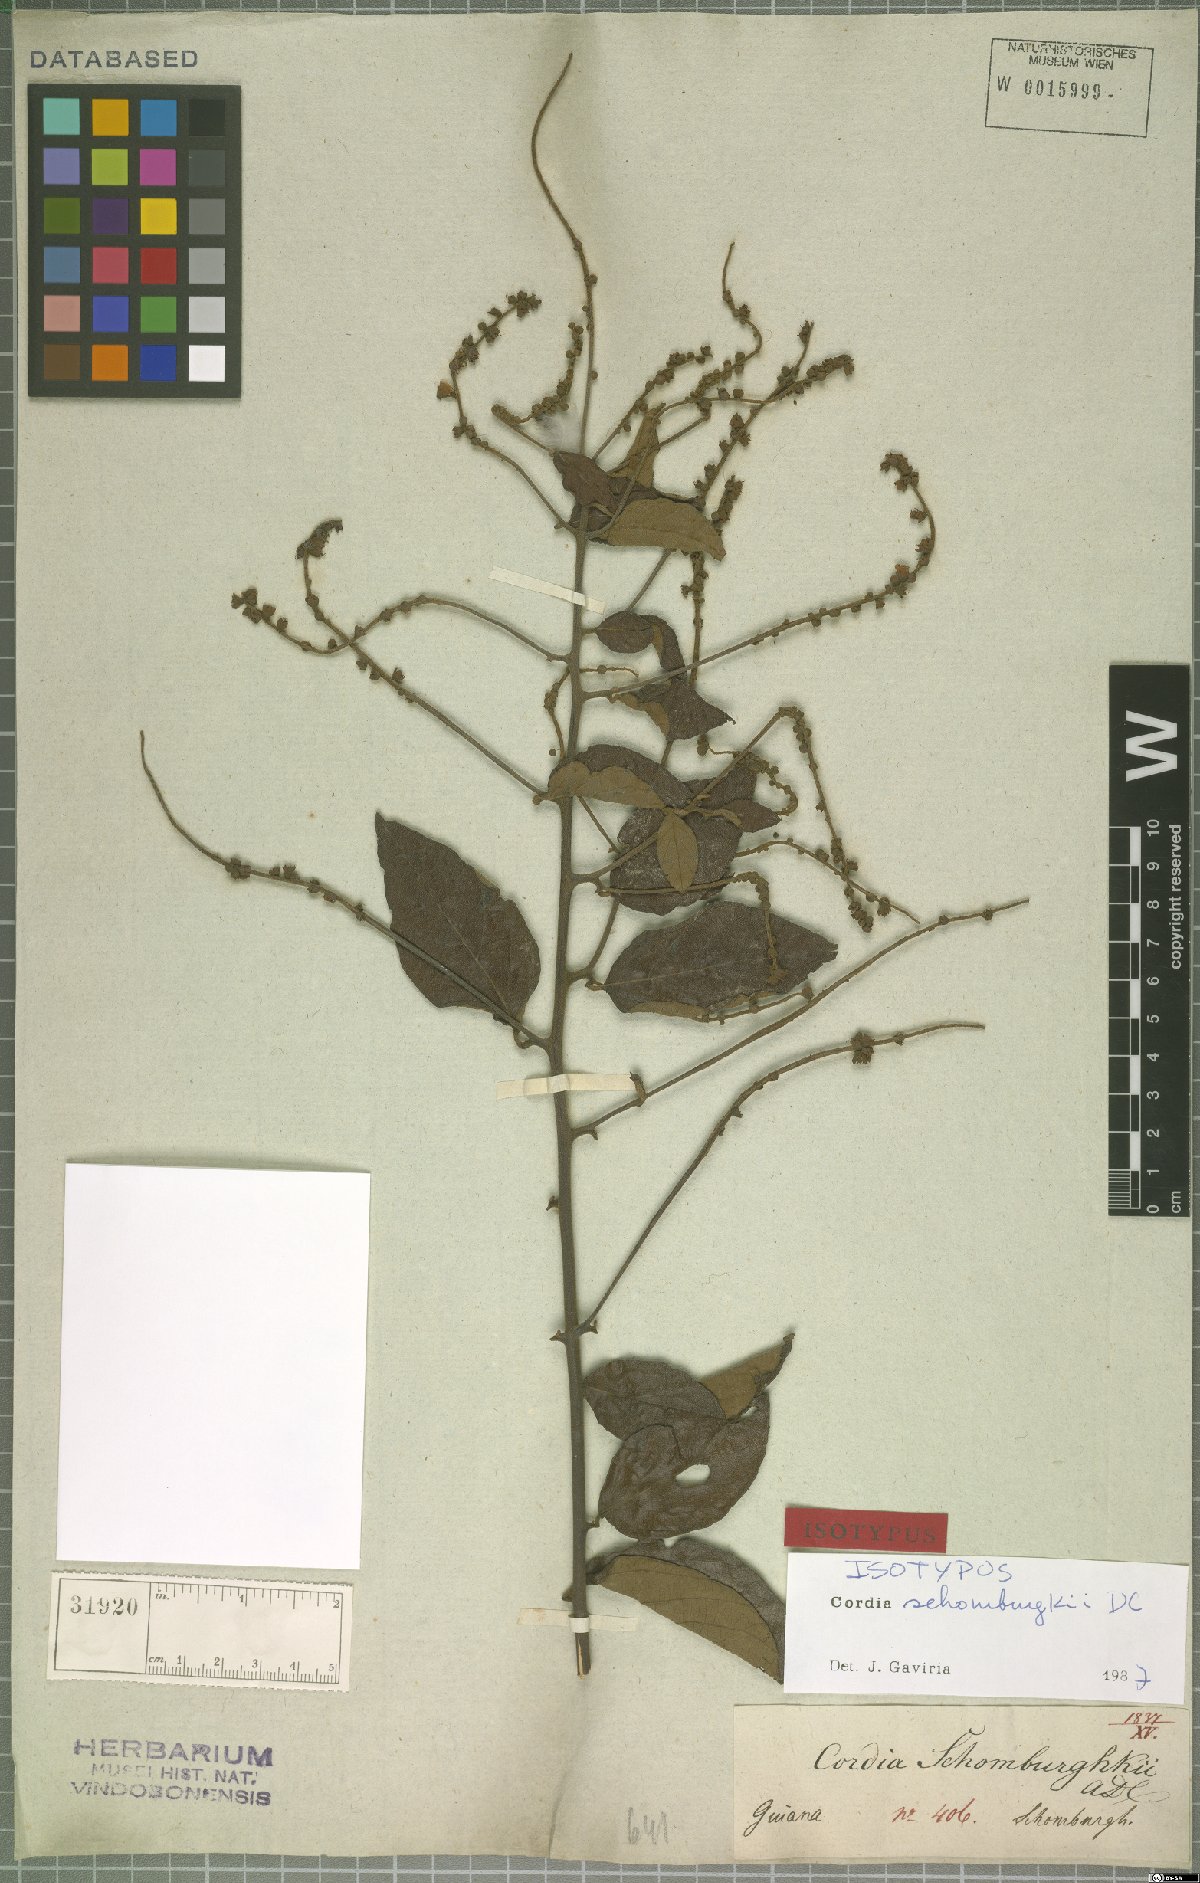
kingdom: Plantae
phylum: Tracheophyta
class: Magnoliopsida
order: Boraginales
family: Cordiaceae
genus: Varronia
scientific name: Varronia schomburgkii
